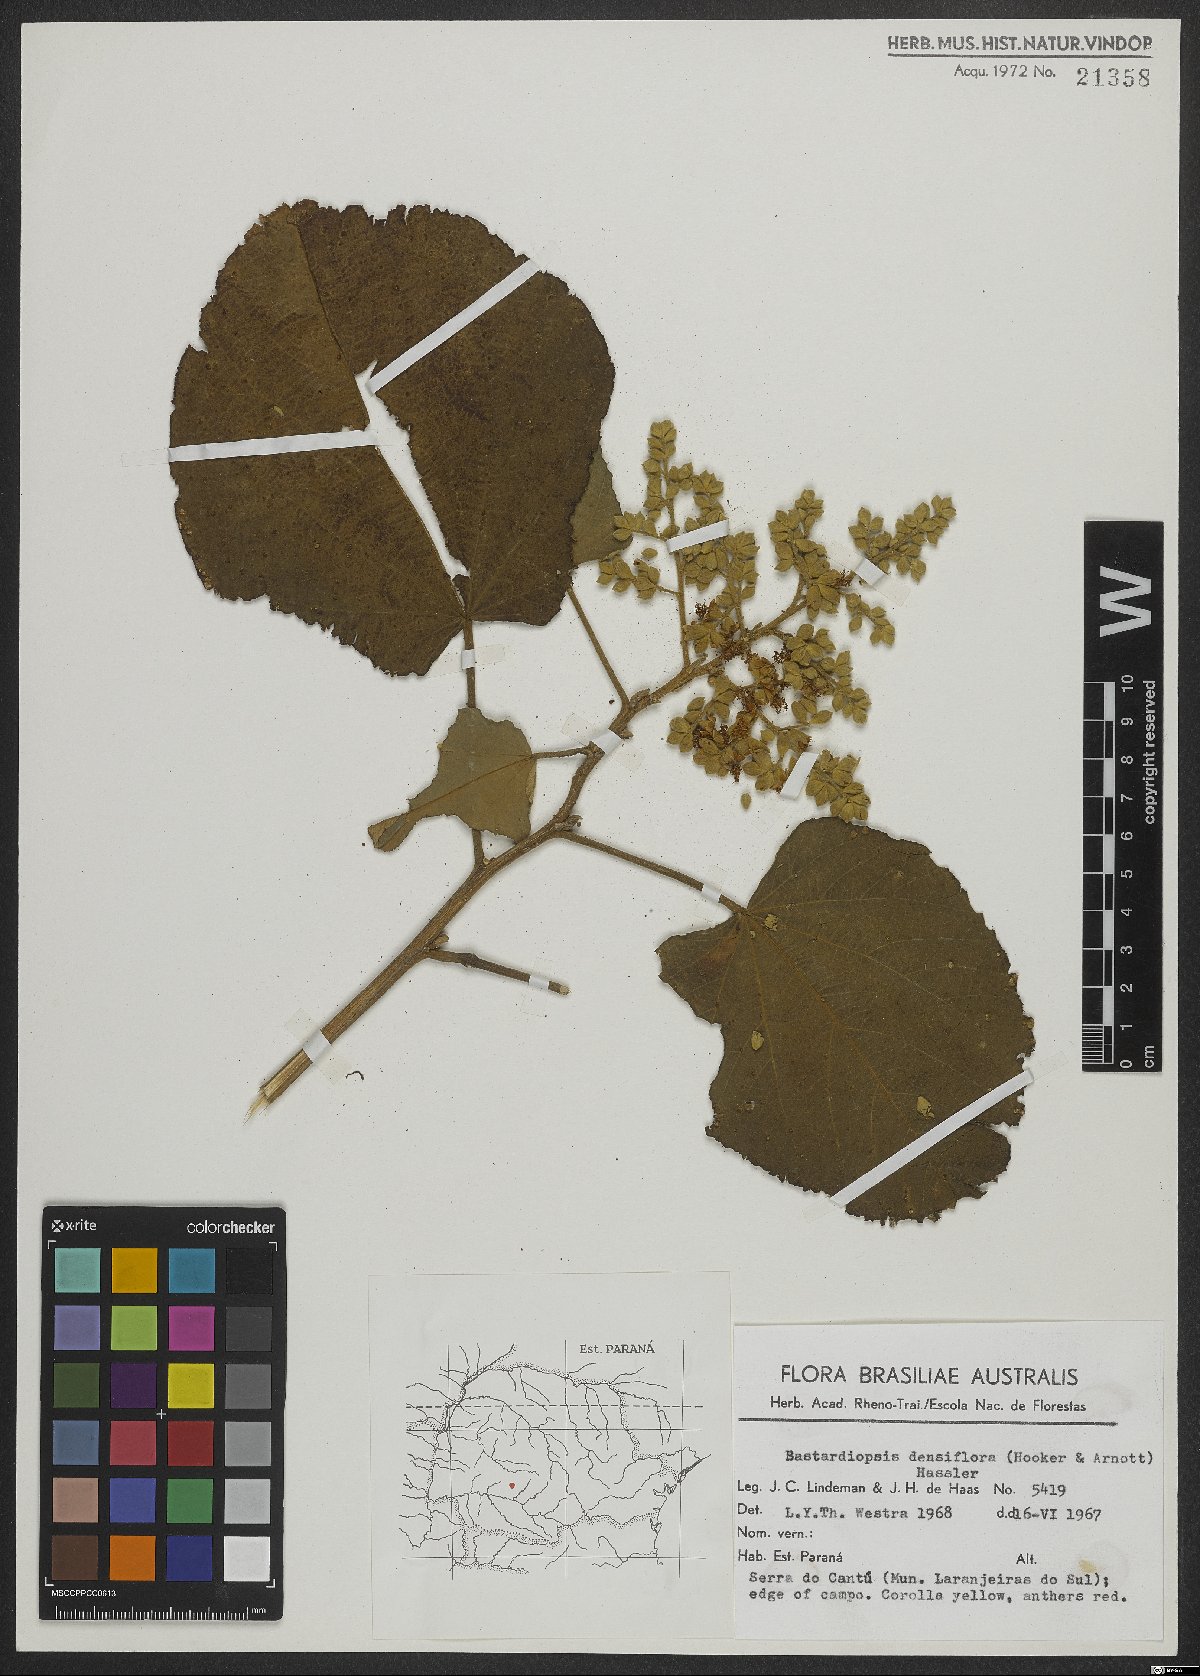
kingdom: Plantae
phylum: Tracheophyta
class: Magnoliopsida
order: Malvales
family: Malvaceae
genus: Bastardiopsis
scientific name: Bastardiopsis densiflora
